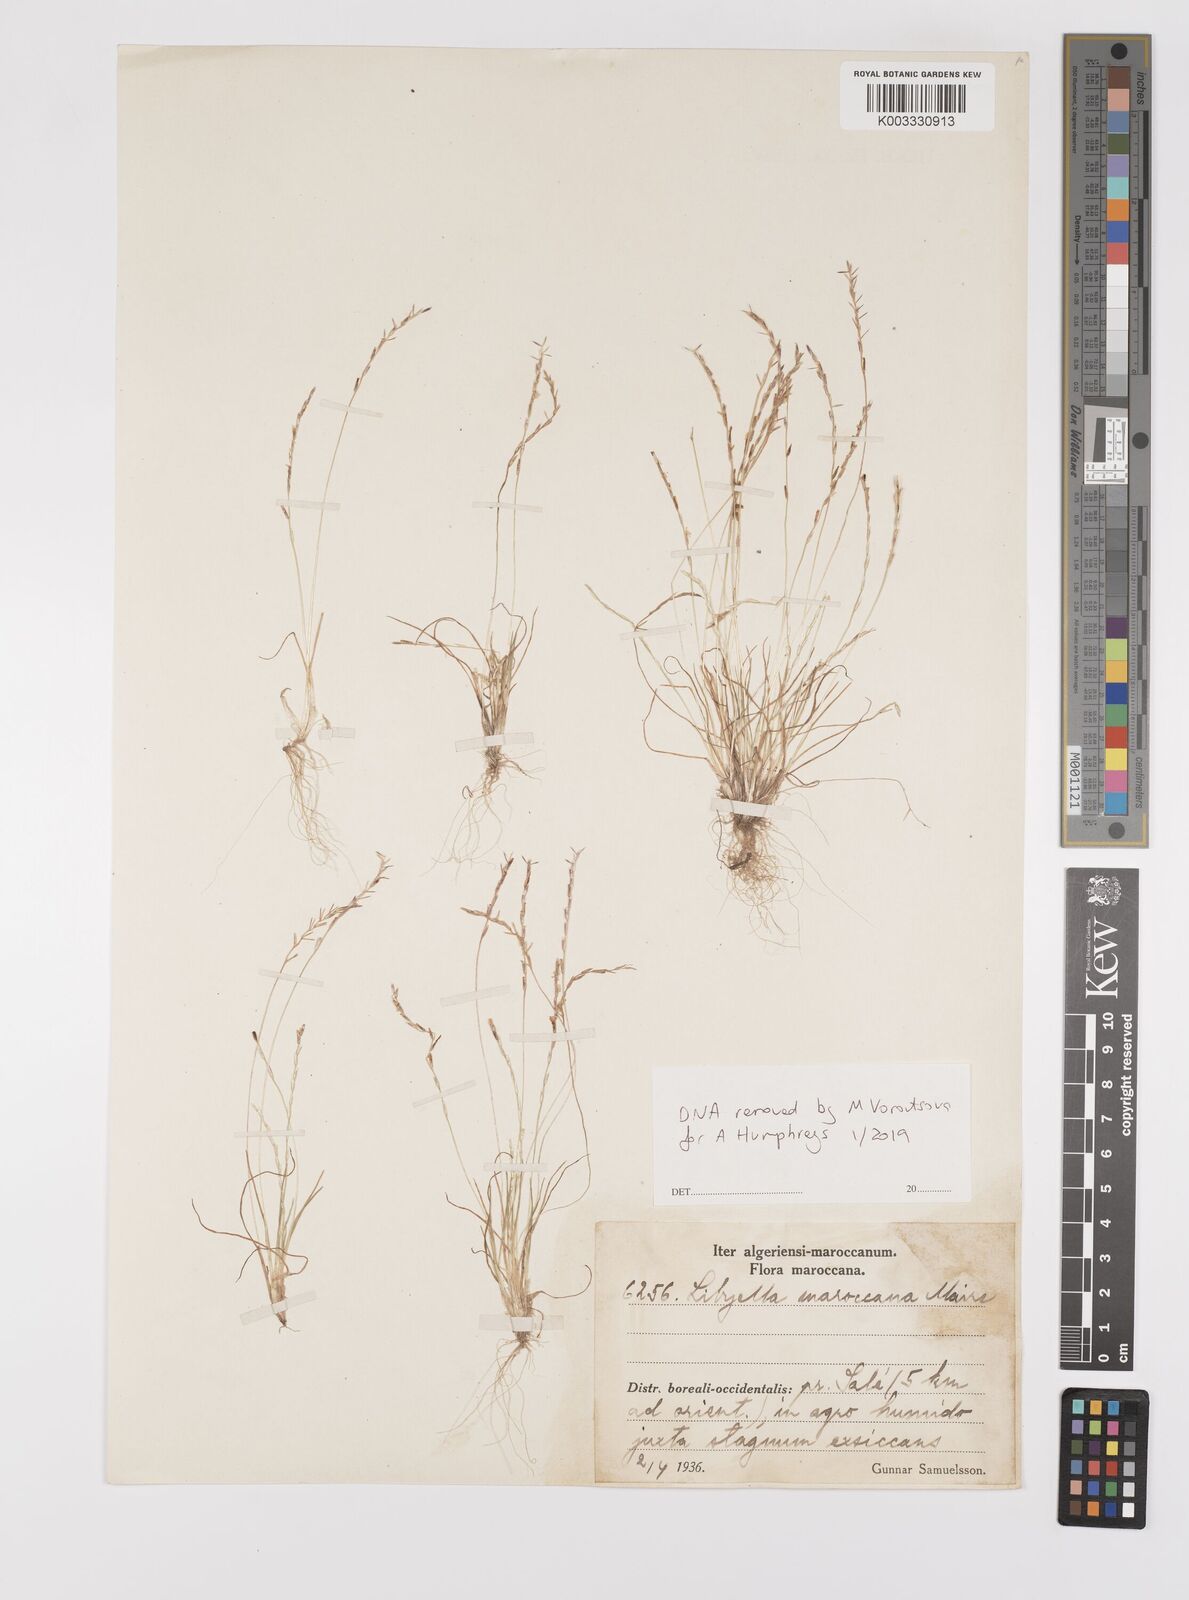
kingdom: Plantae
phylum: Tracheophyta
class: Liliopsida
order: Poales
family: Poaceae
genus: Mibora
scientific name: Mibora maroccana
